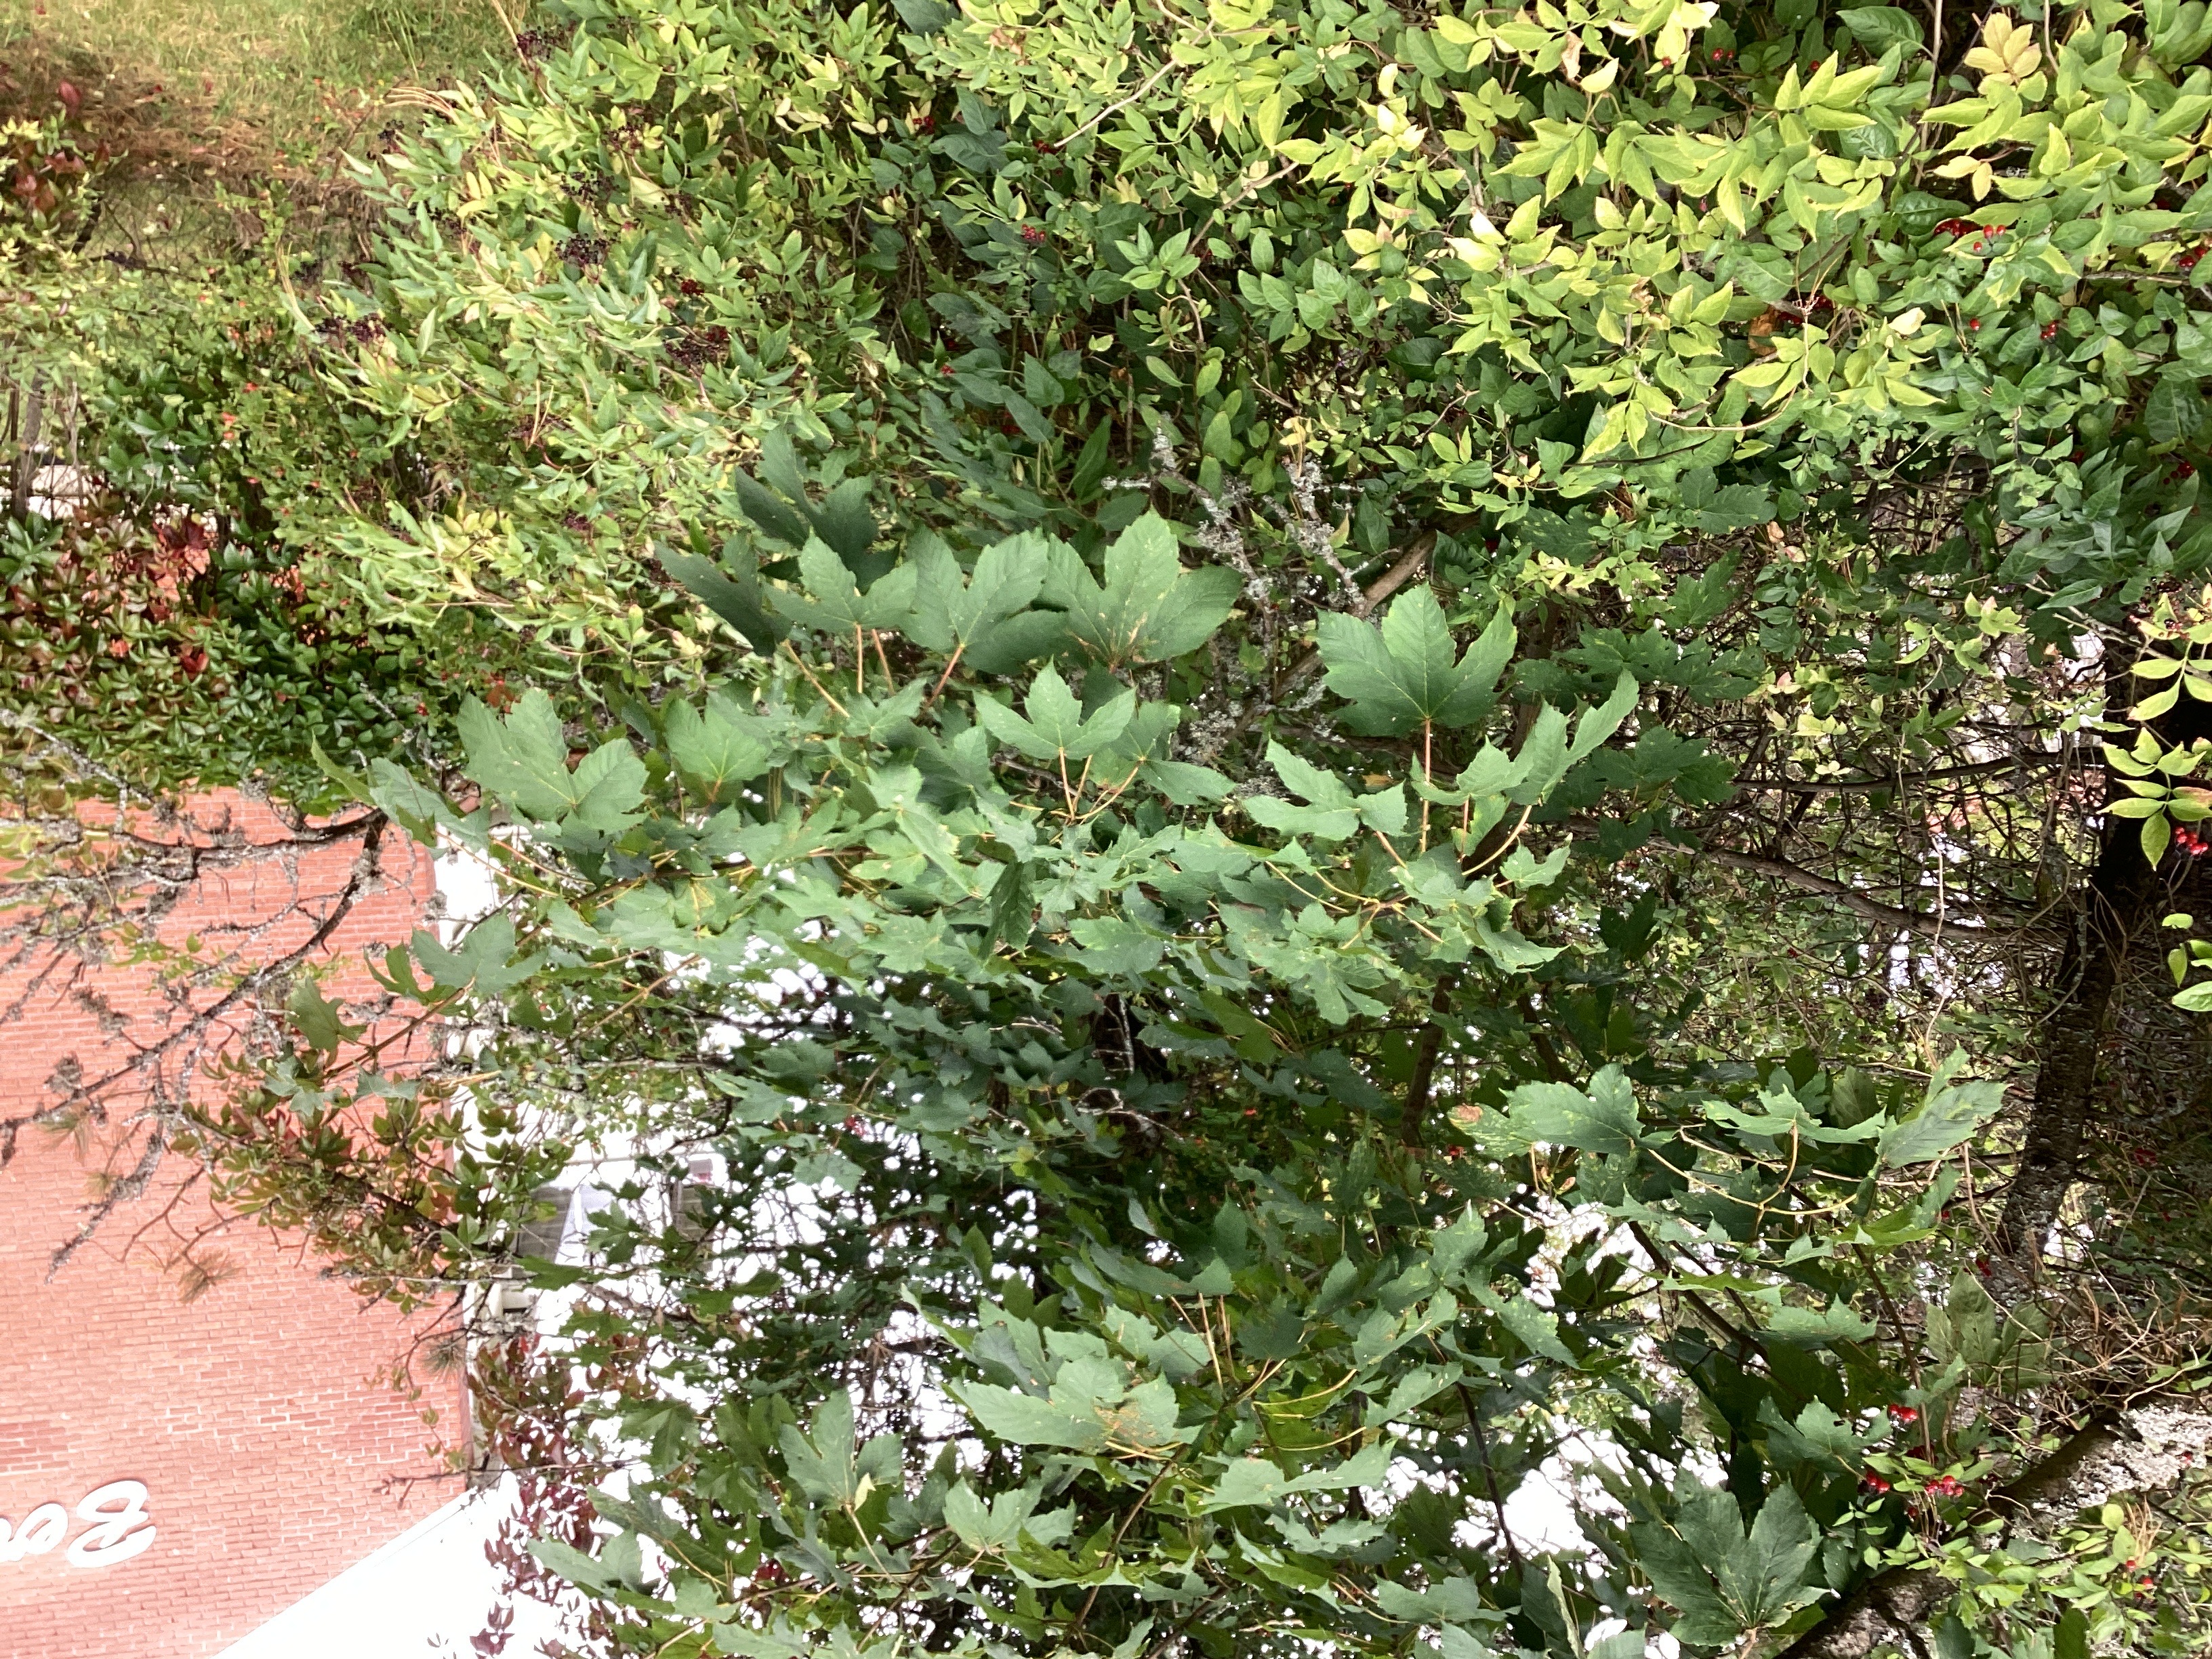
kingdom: Plantae
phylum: Tracheophyta
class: Magnoliopsida
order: Sapindales
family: Sapindaceae
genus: Acer
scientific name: Acer pseudoplatanus
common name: platanlønn
